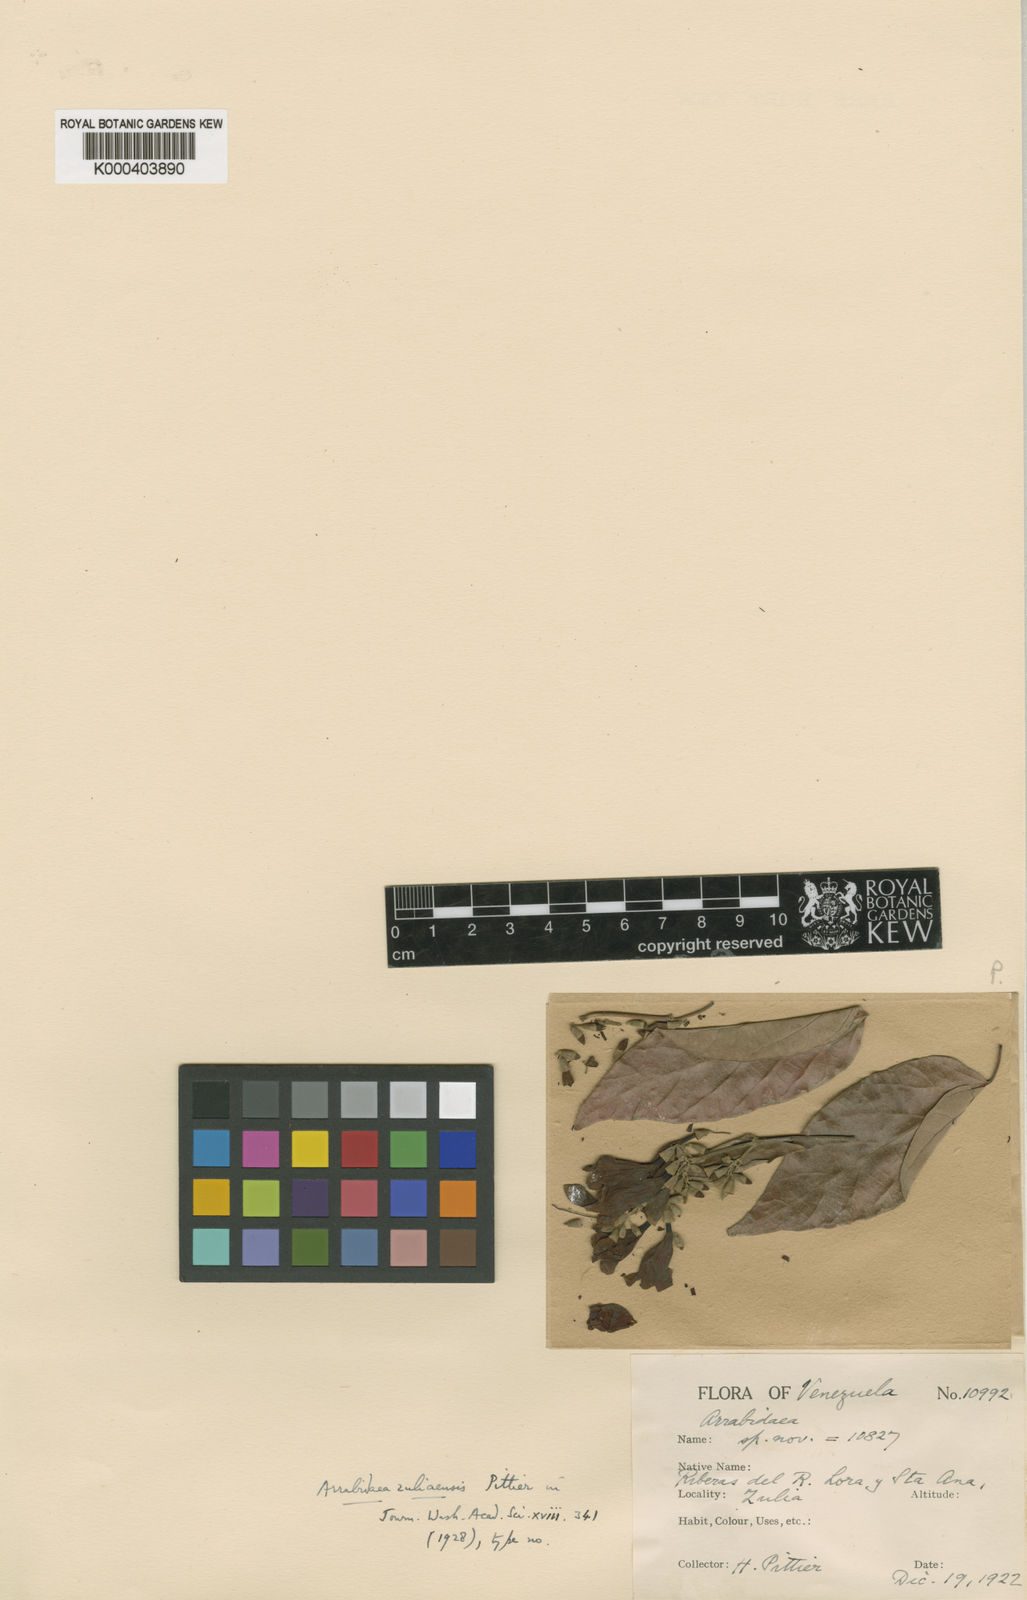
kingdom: Plantae
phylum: Tracheophyta
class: Magnoliopsida
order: Lamiales
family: Bignoniaceae
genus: Fridericia
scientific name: Fridericia candicans
